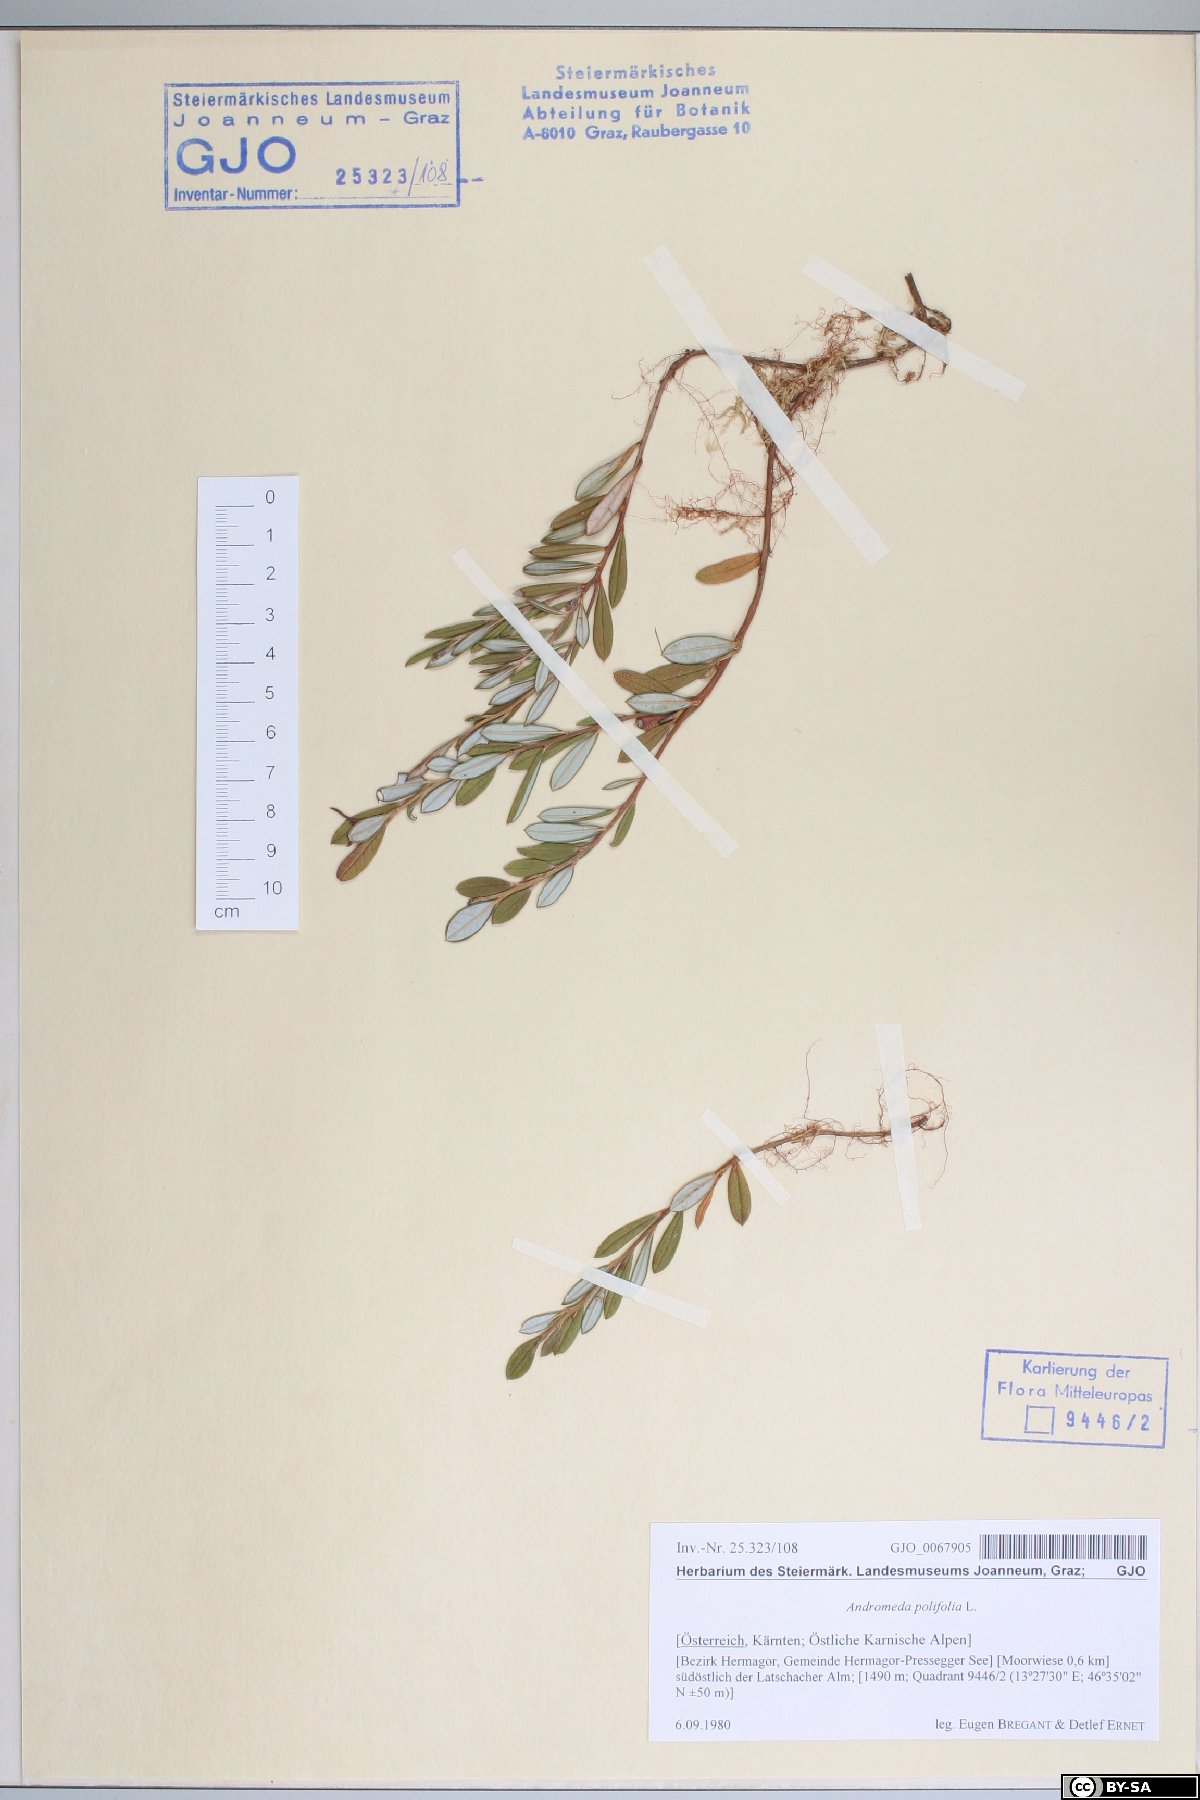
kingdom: Plantae
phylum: Tracheophyta
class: Magnoliopsida
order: Ericales
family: Ericaceae
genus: Andromeda
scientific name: Andromeda polifolia
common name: Bog-rosemary
